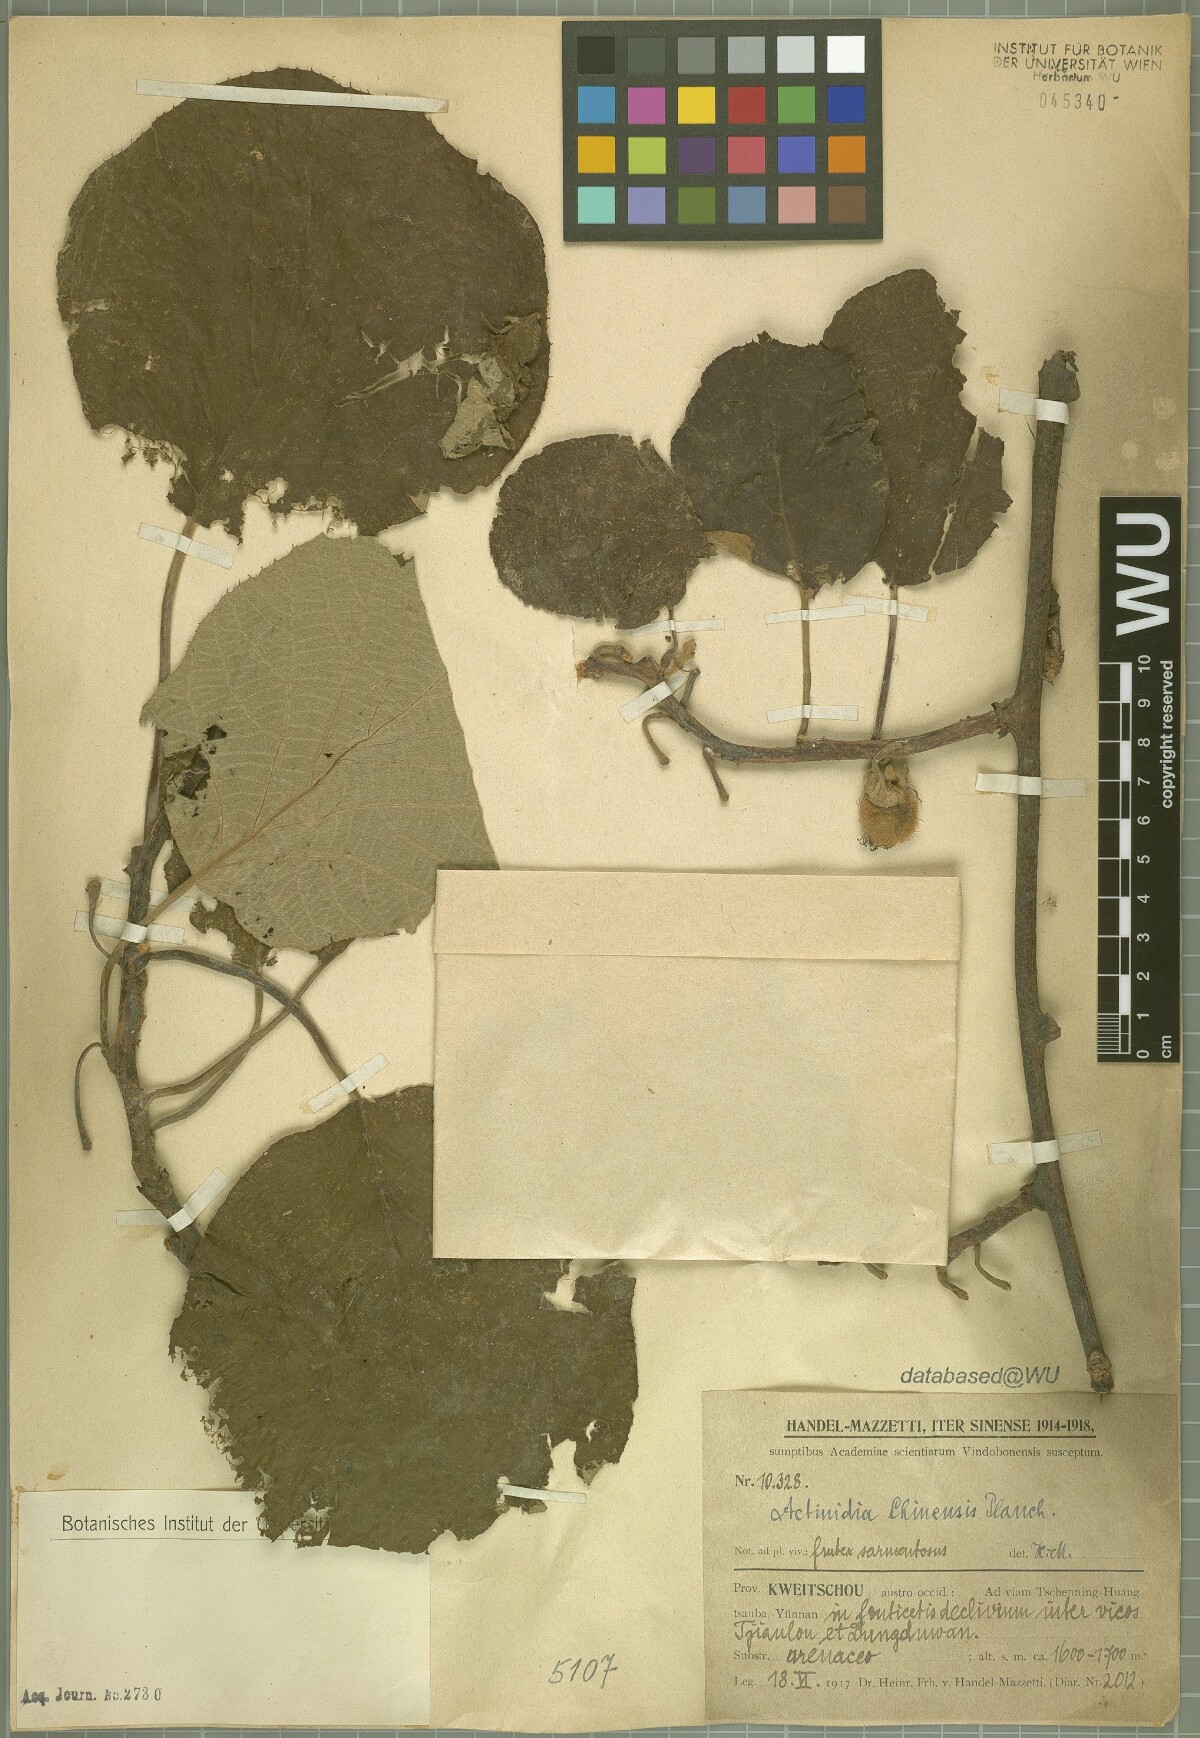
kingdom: Plantae
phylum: Tracheophyta
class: Magnoliopsida
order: Ericales
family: Actinidiaceae
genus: Actinidia
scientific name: Actinidia chinensis
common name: Kiwi
